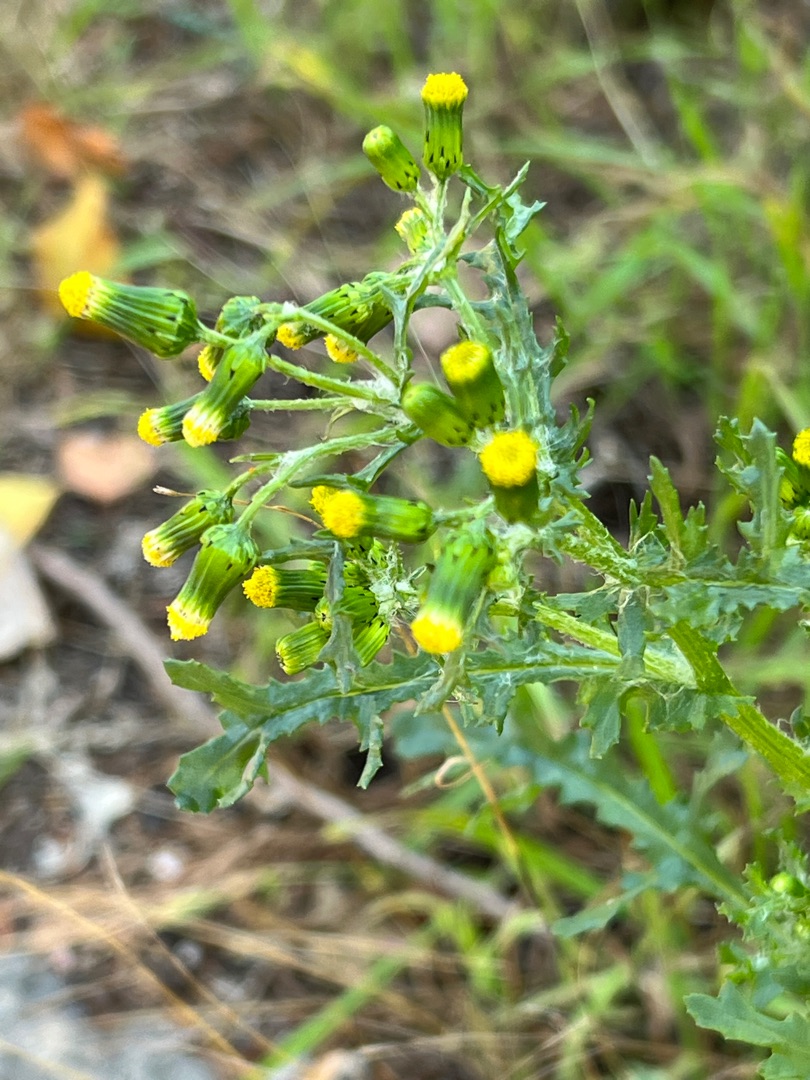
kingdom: Plantae
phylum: Tracheophyta
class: Magnoliopsida
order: Asterales
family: Asteraceae
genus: Senecio
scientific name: Senecio vulgaris
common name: Almindelig brandbæger
